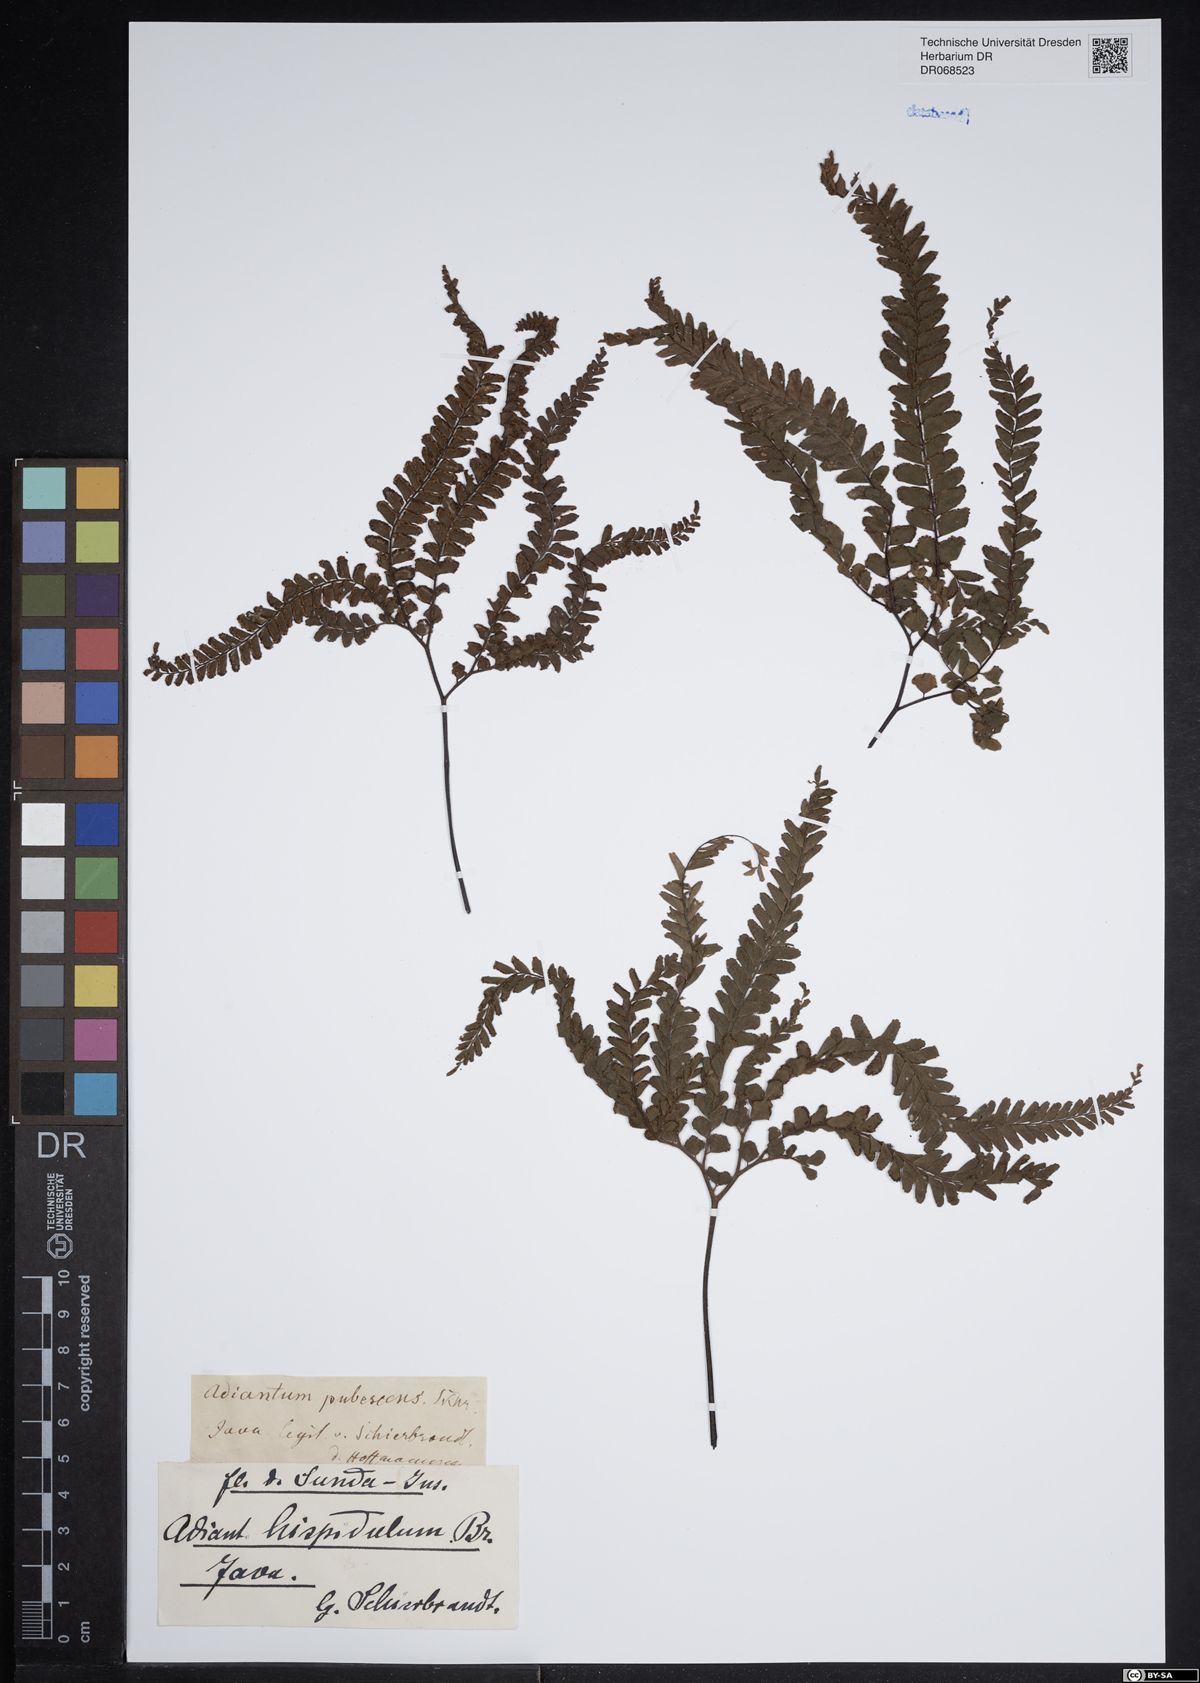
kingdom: Plantae
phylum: Tracheophyta
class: Polypodiopsida
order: Polypodiales
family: Pteridaceae
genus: Adiantum
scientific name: Adiantum hispidulum
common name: Rough maidenhair
